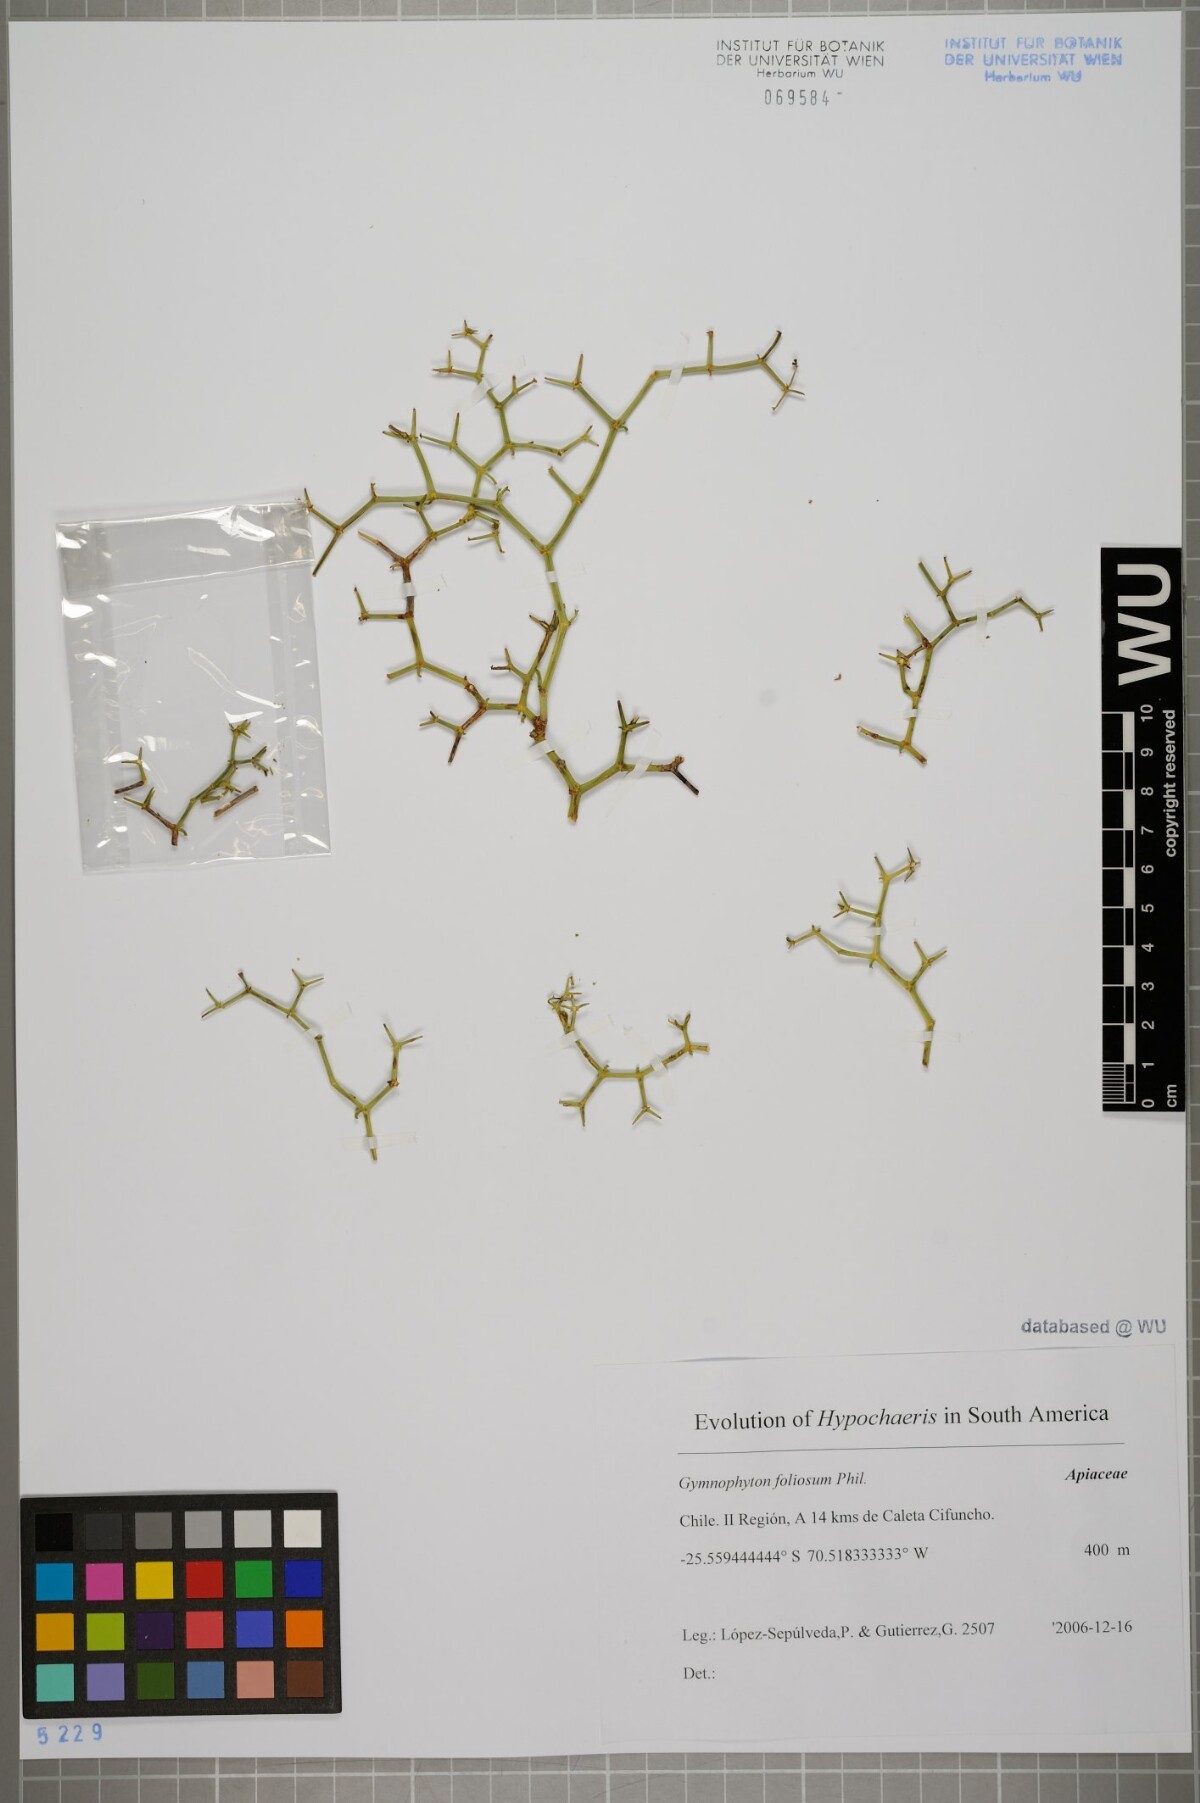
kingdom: Plantae
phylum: Tracheophyta
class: Magnoliopsida
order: Apiales
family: Apiaceae
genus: Gymnophyton
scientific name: Gymnophyton foliosum
